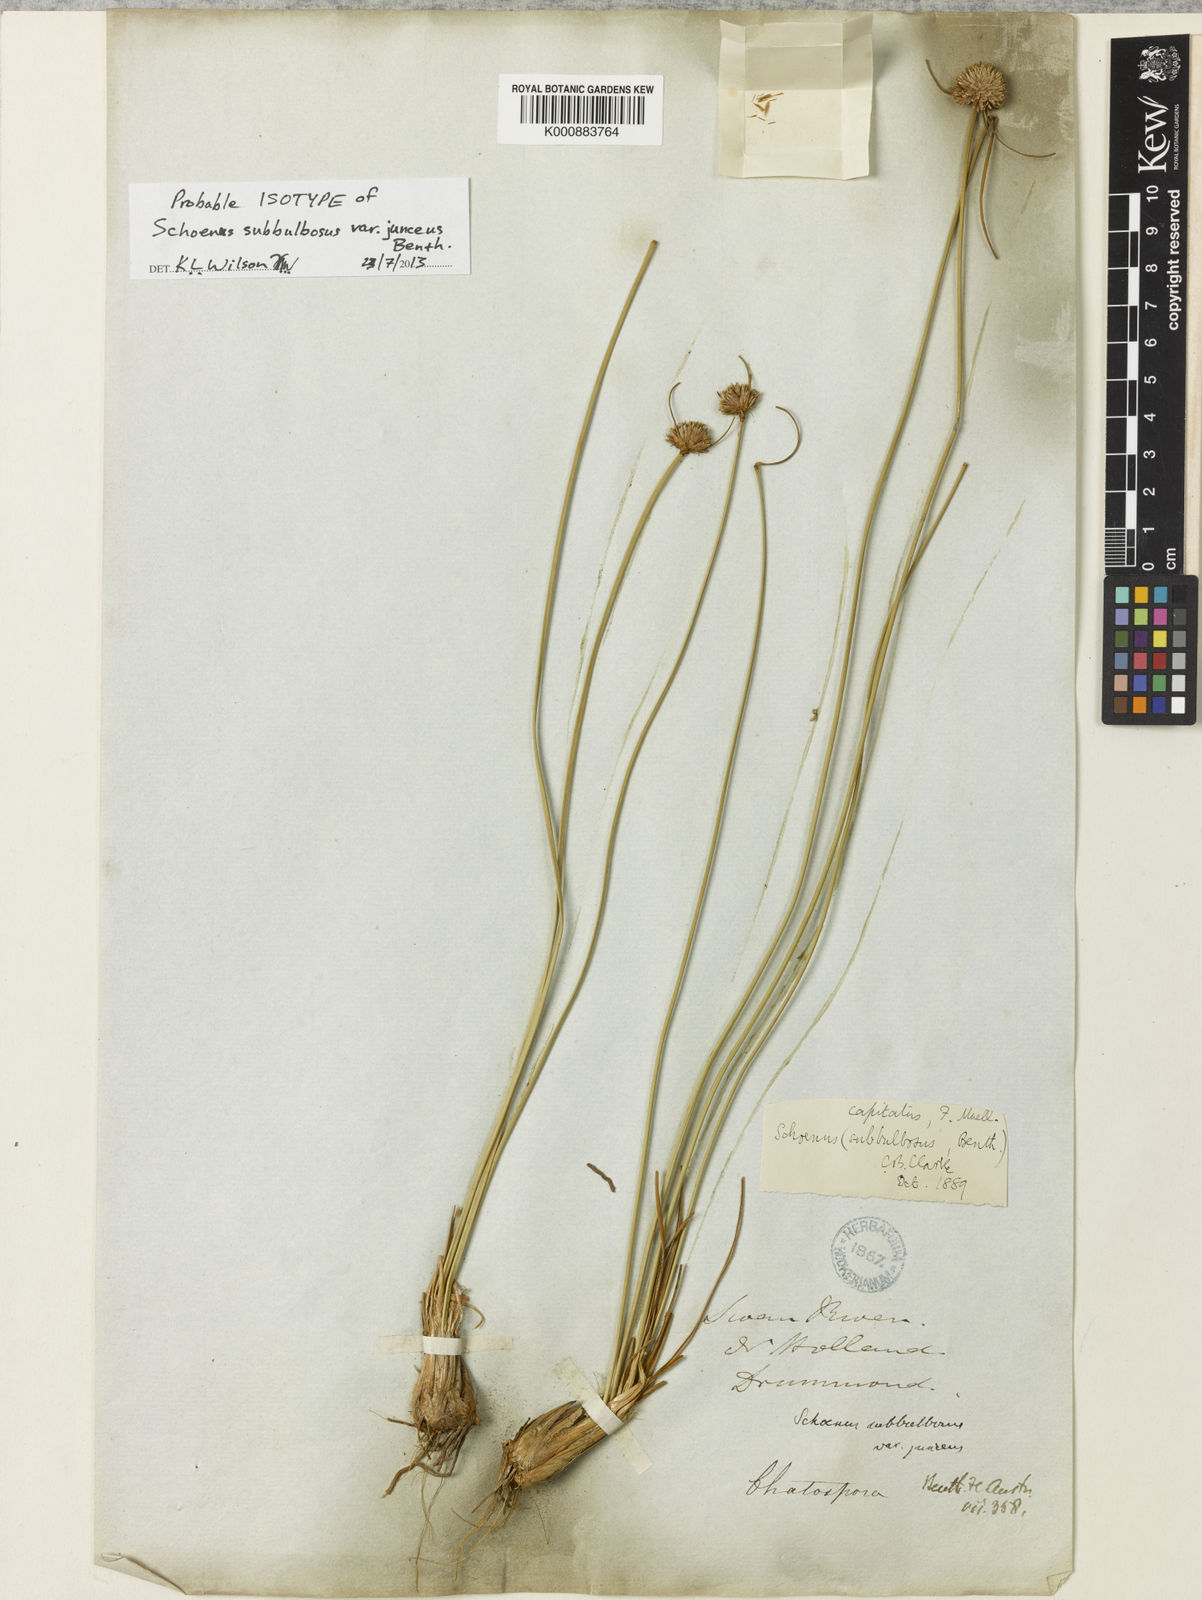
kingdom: Plantae
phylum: Tracheophyta
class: Liliopsida
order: Poales
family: Cyperaceae
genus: Schoenus
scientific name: Schoenus subbulbosus
